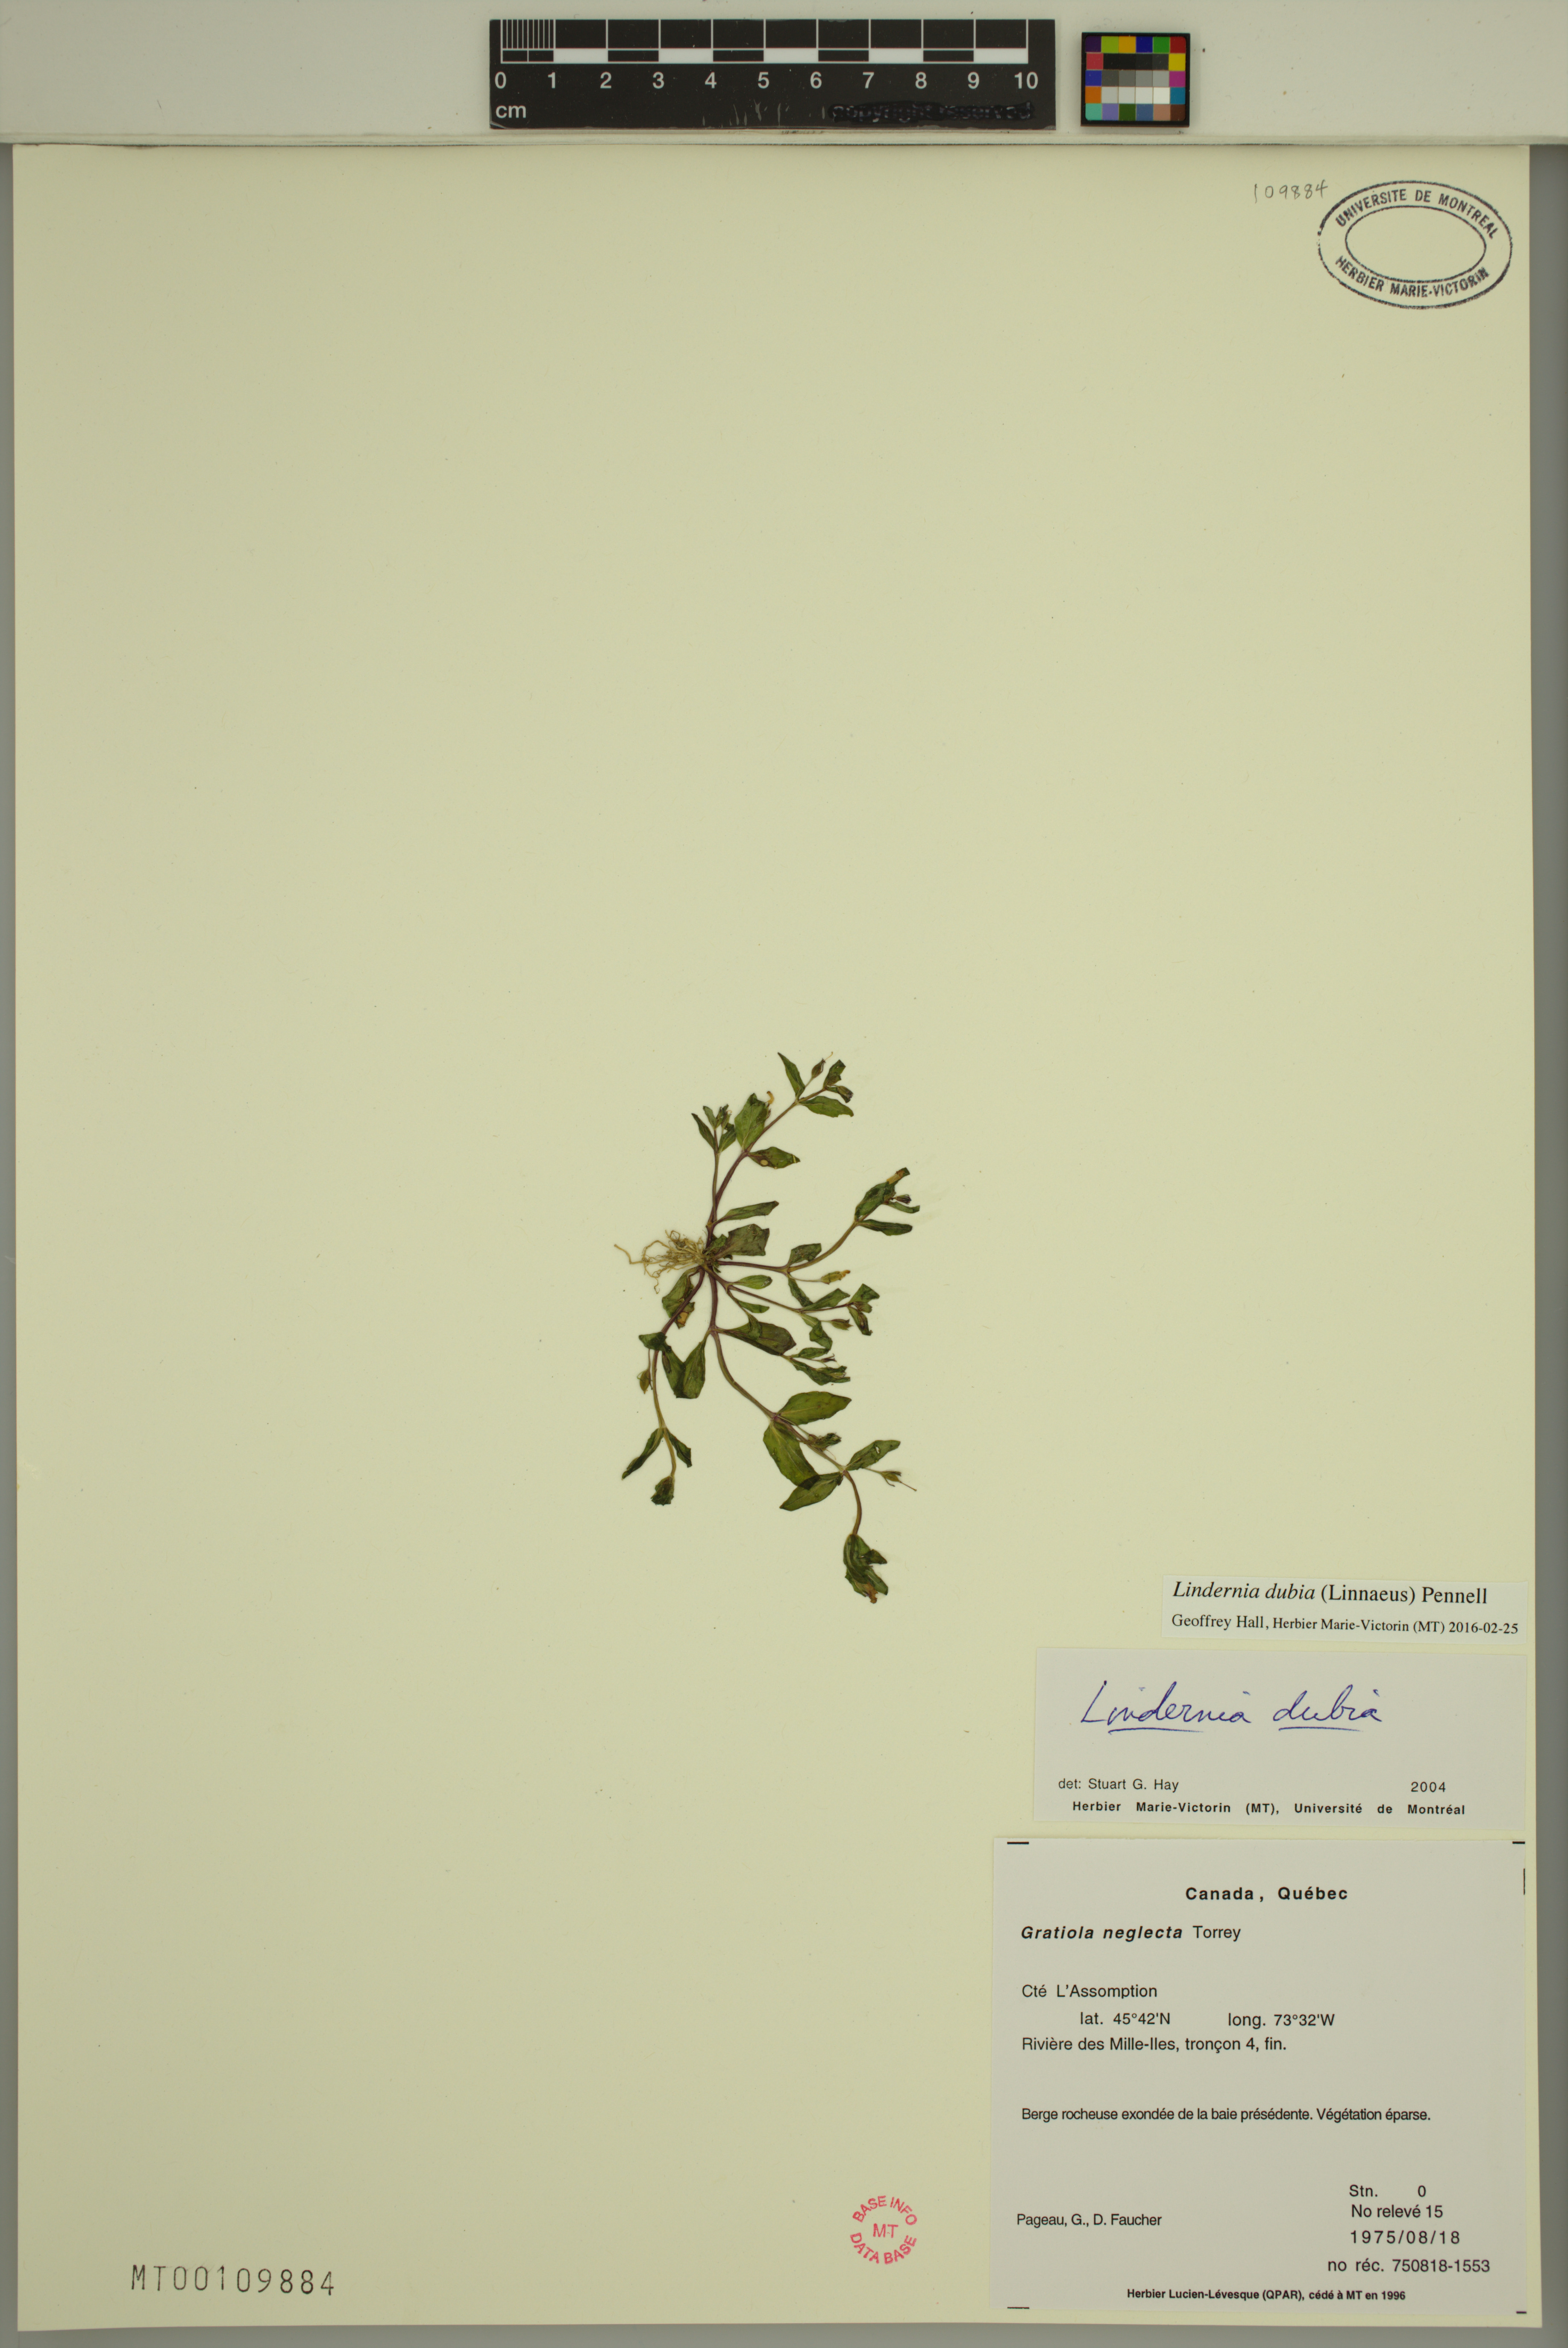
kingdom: Plantae
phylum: Tracheophyta
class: Magnoliopsida
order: Lamiales
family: Linderniaceae
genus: Lindernia
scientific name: Lindernia dubia
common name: Annual false pimpernel
